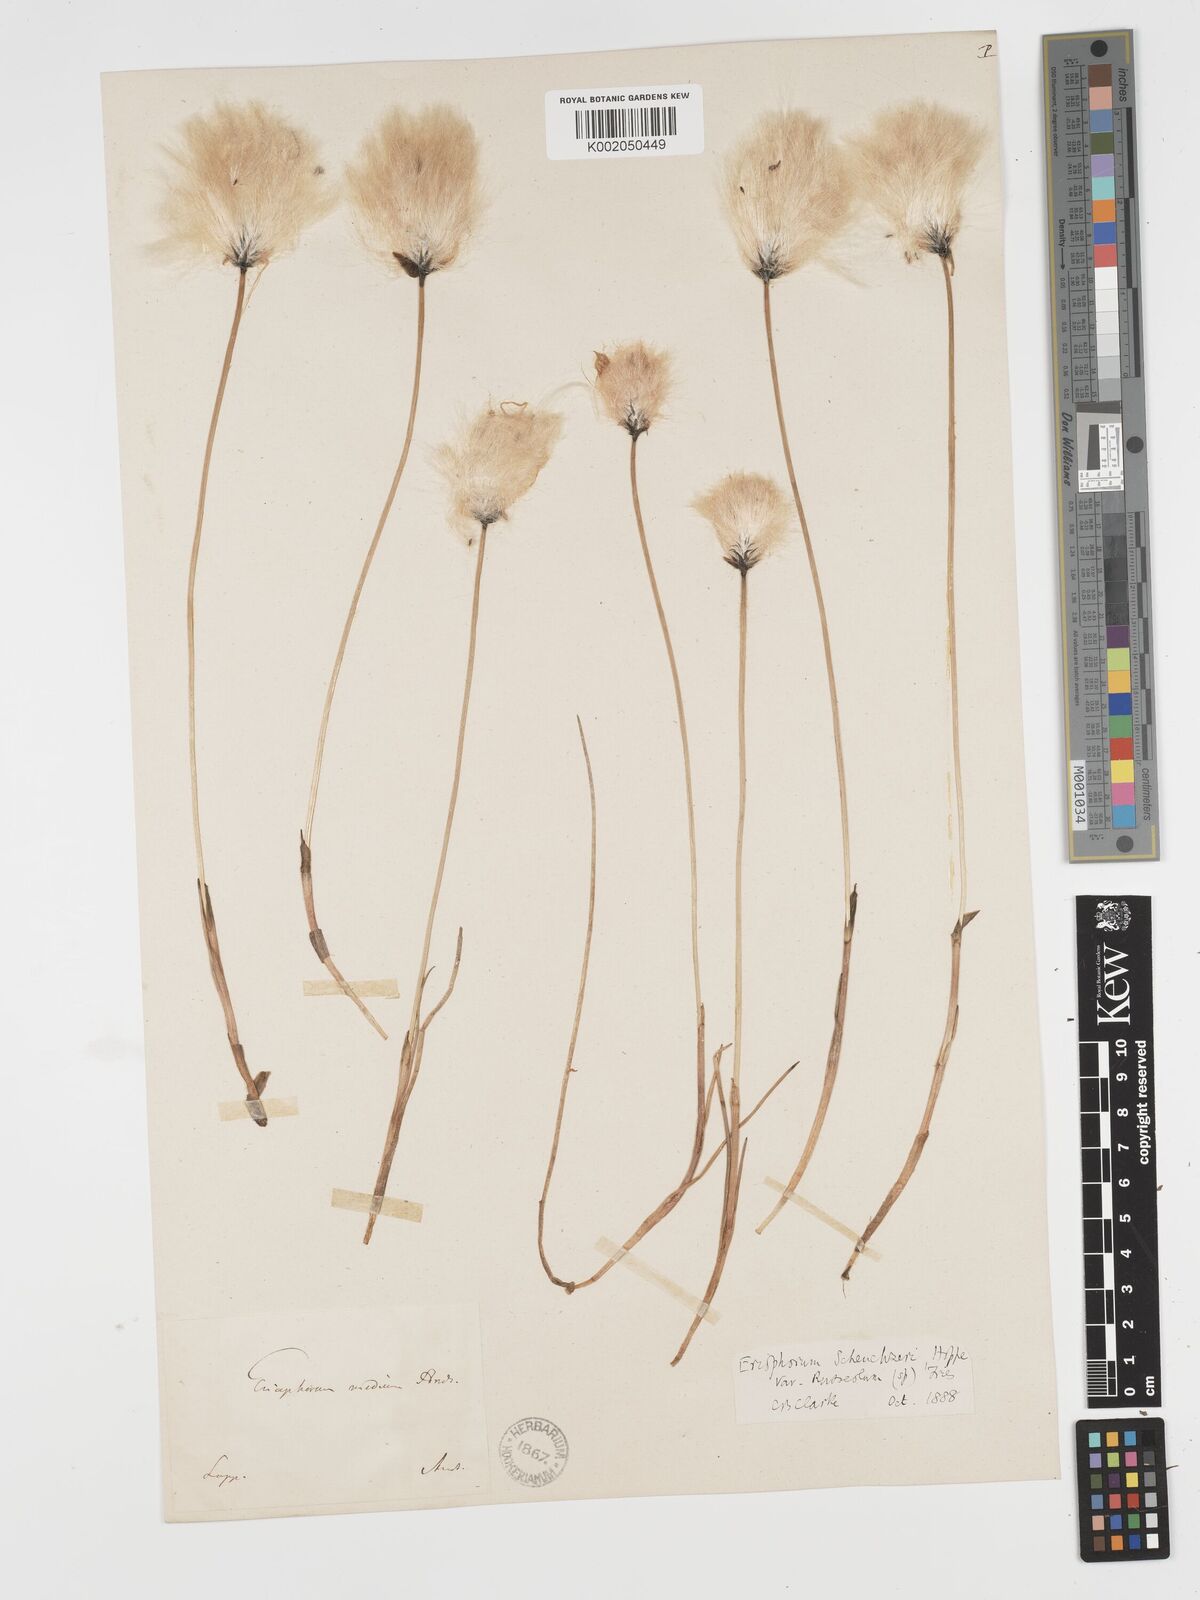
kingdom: Plantae
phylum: Tracheophyta
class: Liliopsida
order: Poales
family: Cyperaceae
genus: Eriophorum
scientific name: Eriophorum scheuchzeri
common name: Scheuchzer's cottongrass
